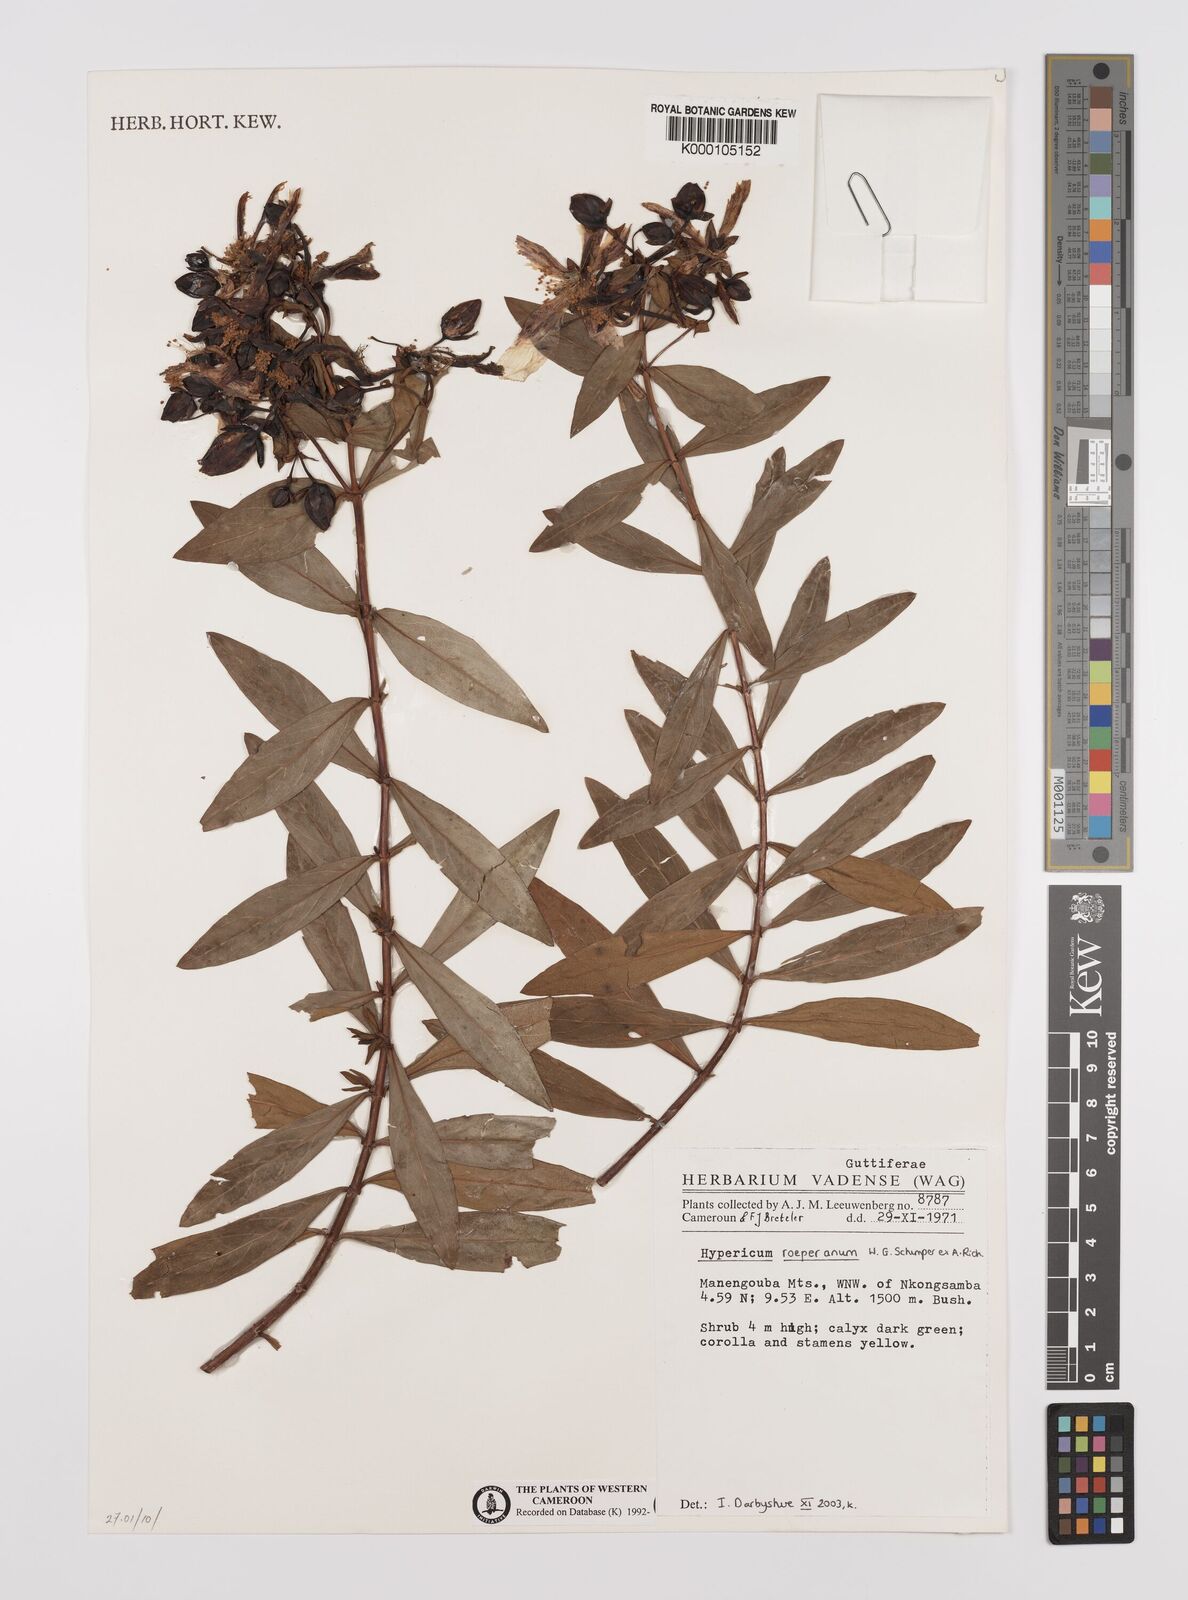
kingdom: Plantae
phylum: Tracheophyta
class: Magnoliopsida
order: Malpighiales
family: Hypericaceae
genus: Hypericum
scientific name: Hypericum roeperianum
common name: Large-leaved curry-bush
